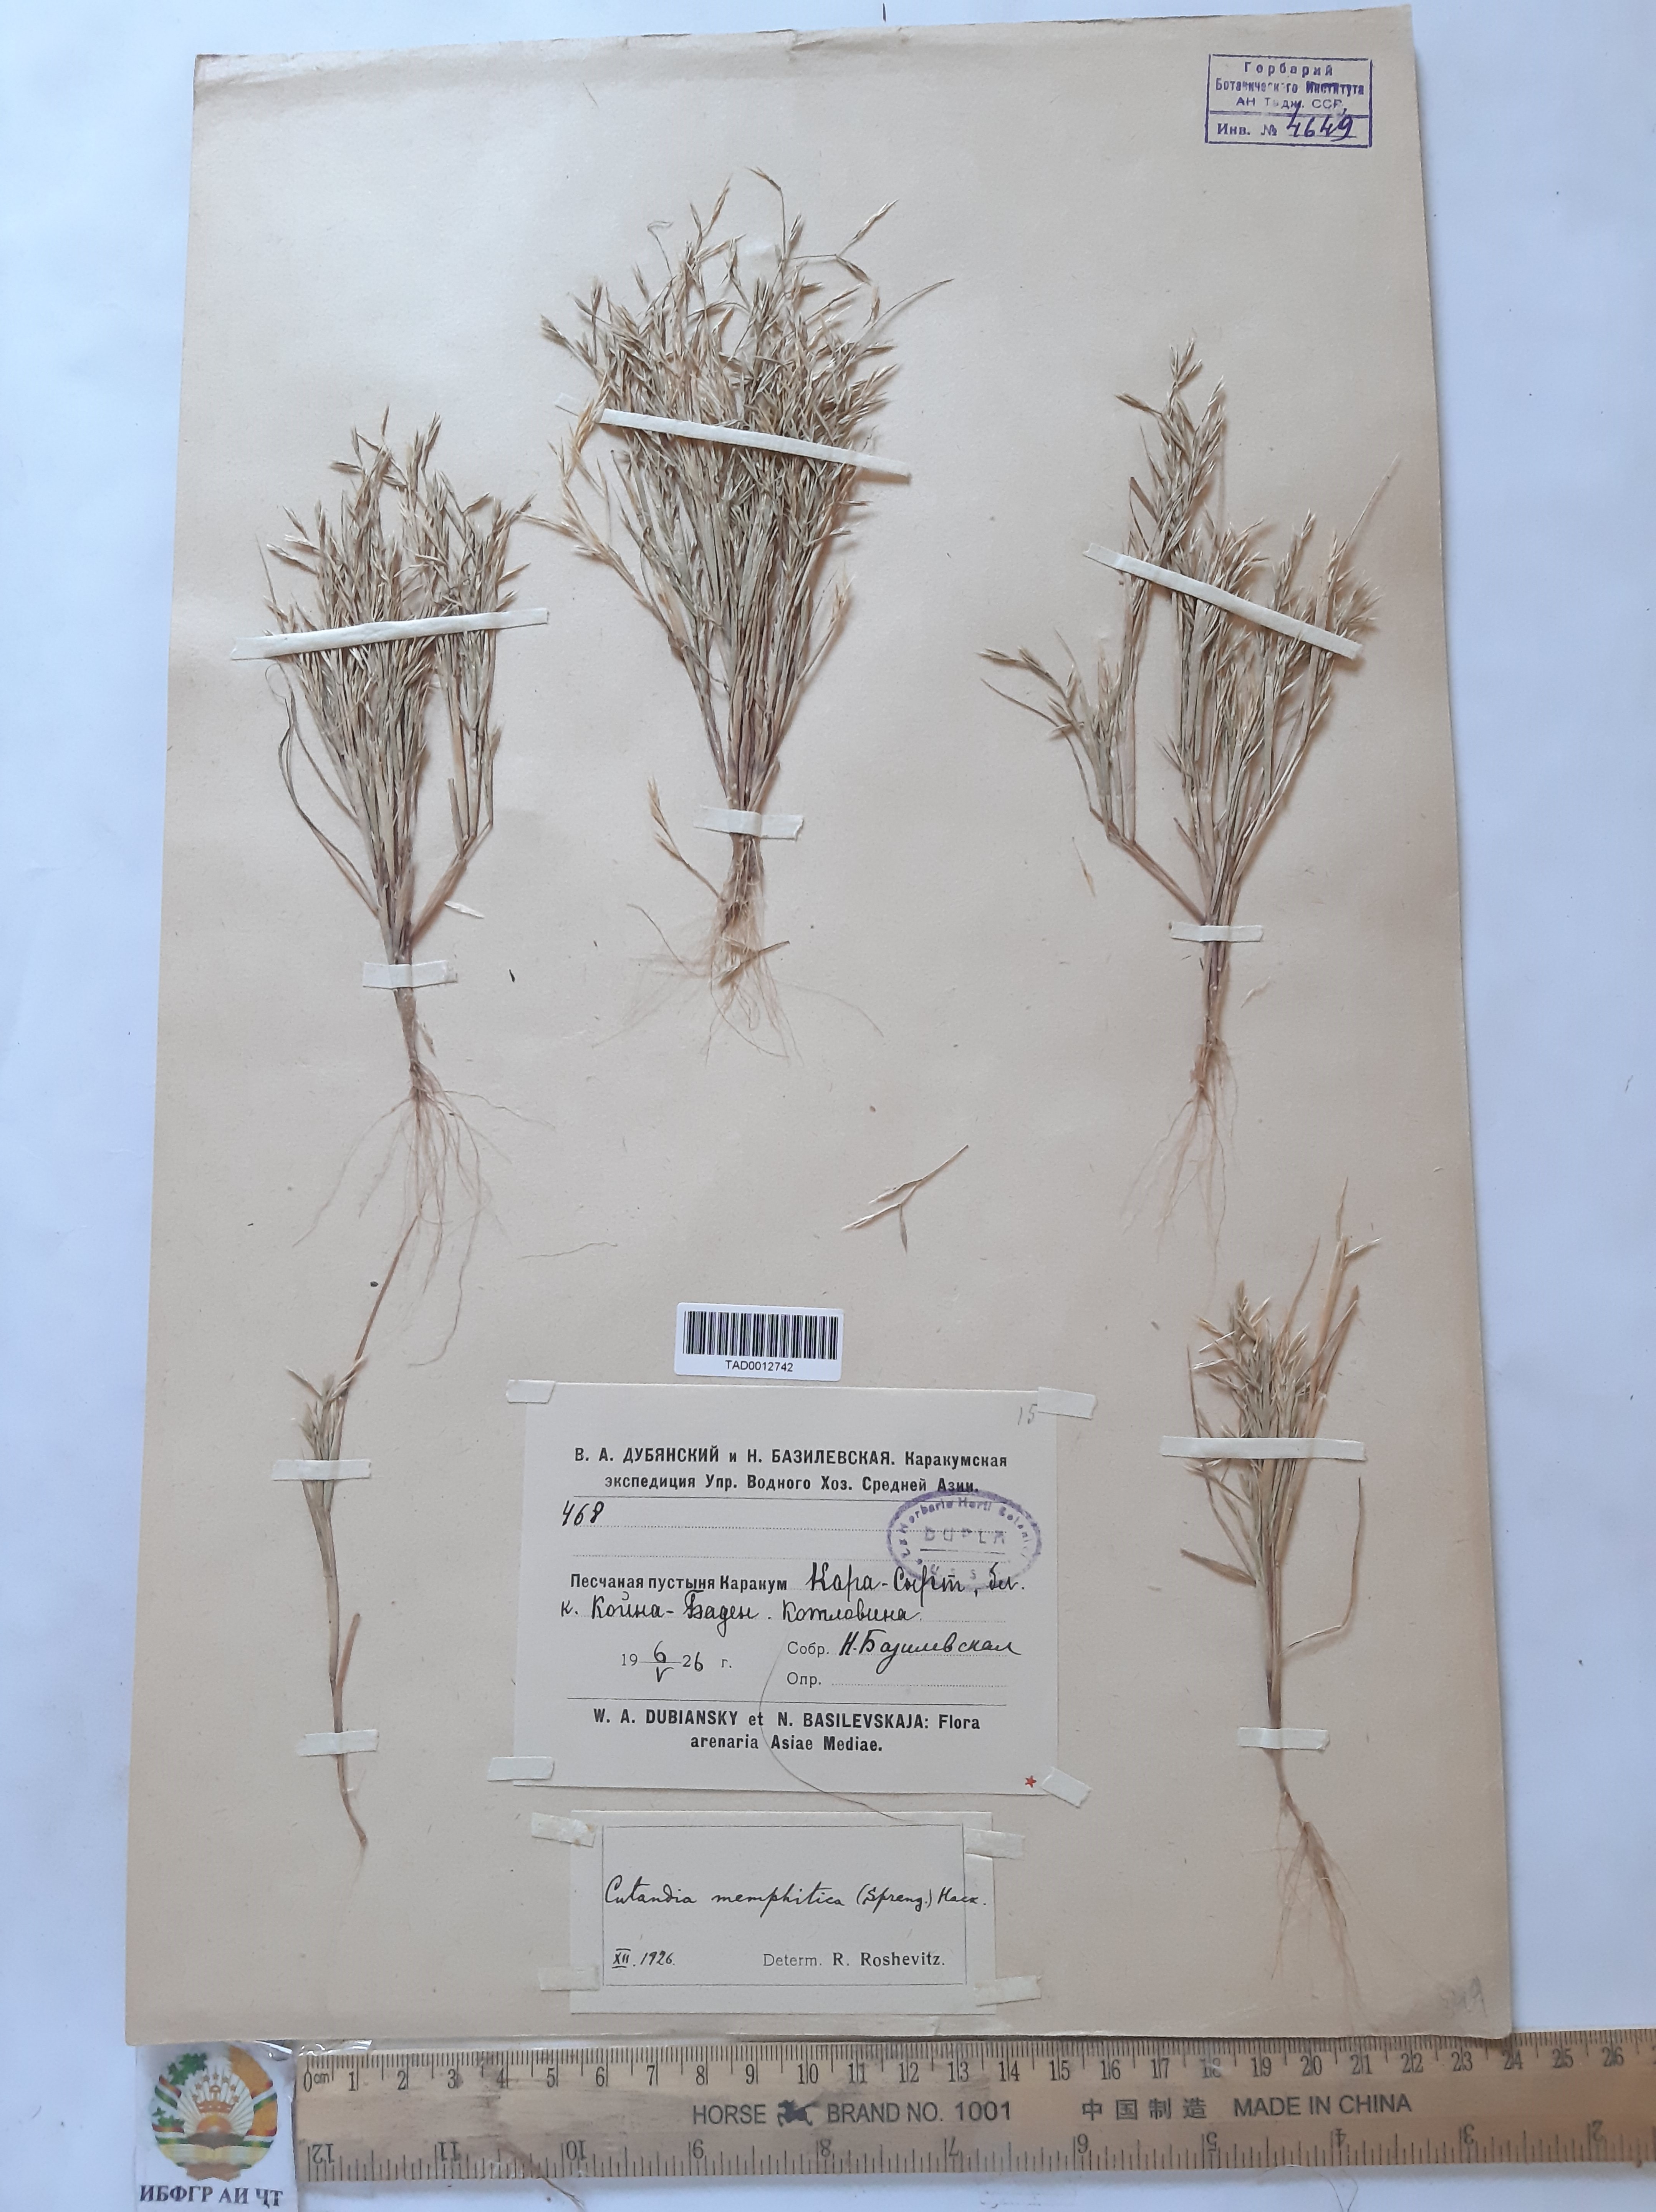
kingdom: Plantae
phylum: Tracheophyta
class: Liliopsida
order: Poales
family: Poaceae
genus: Cutandia
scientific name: Cutandia memphitica
